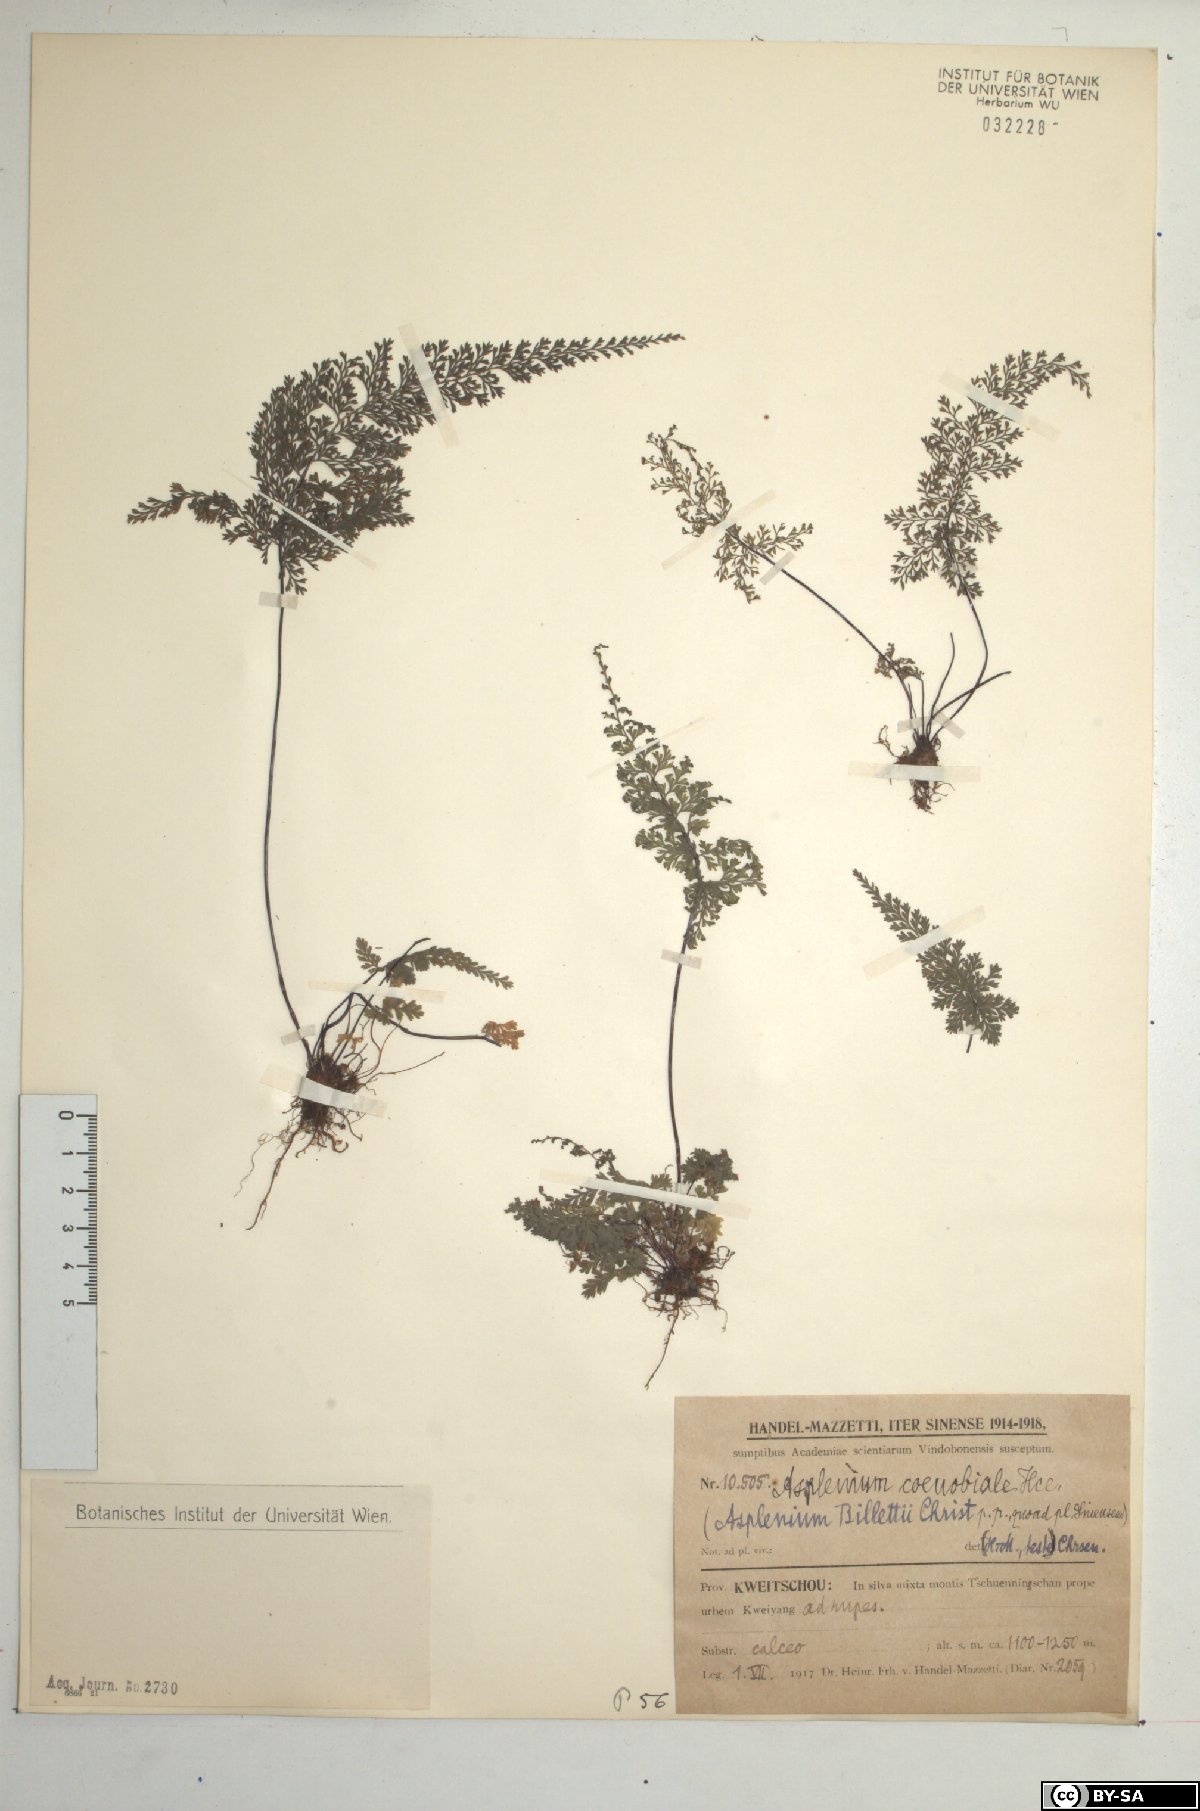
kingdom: Plantae
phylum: Tracheophyta
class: Polypodiopsida
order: Polypodiales
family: Aspleniaceae
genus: Asplenium
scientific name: Asplenium coenobiale
